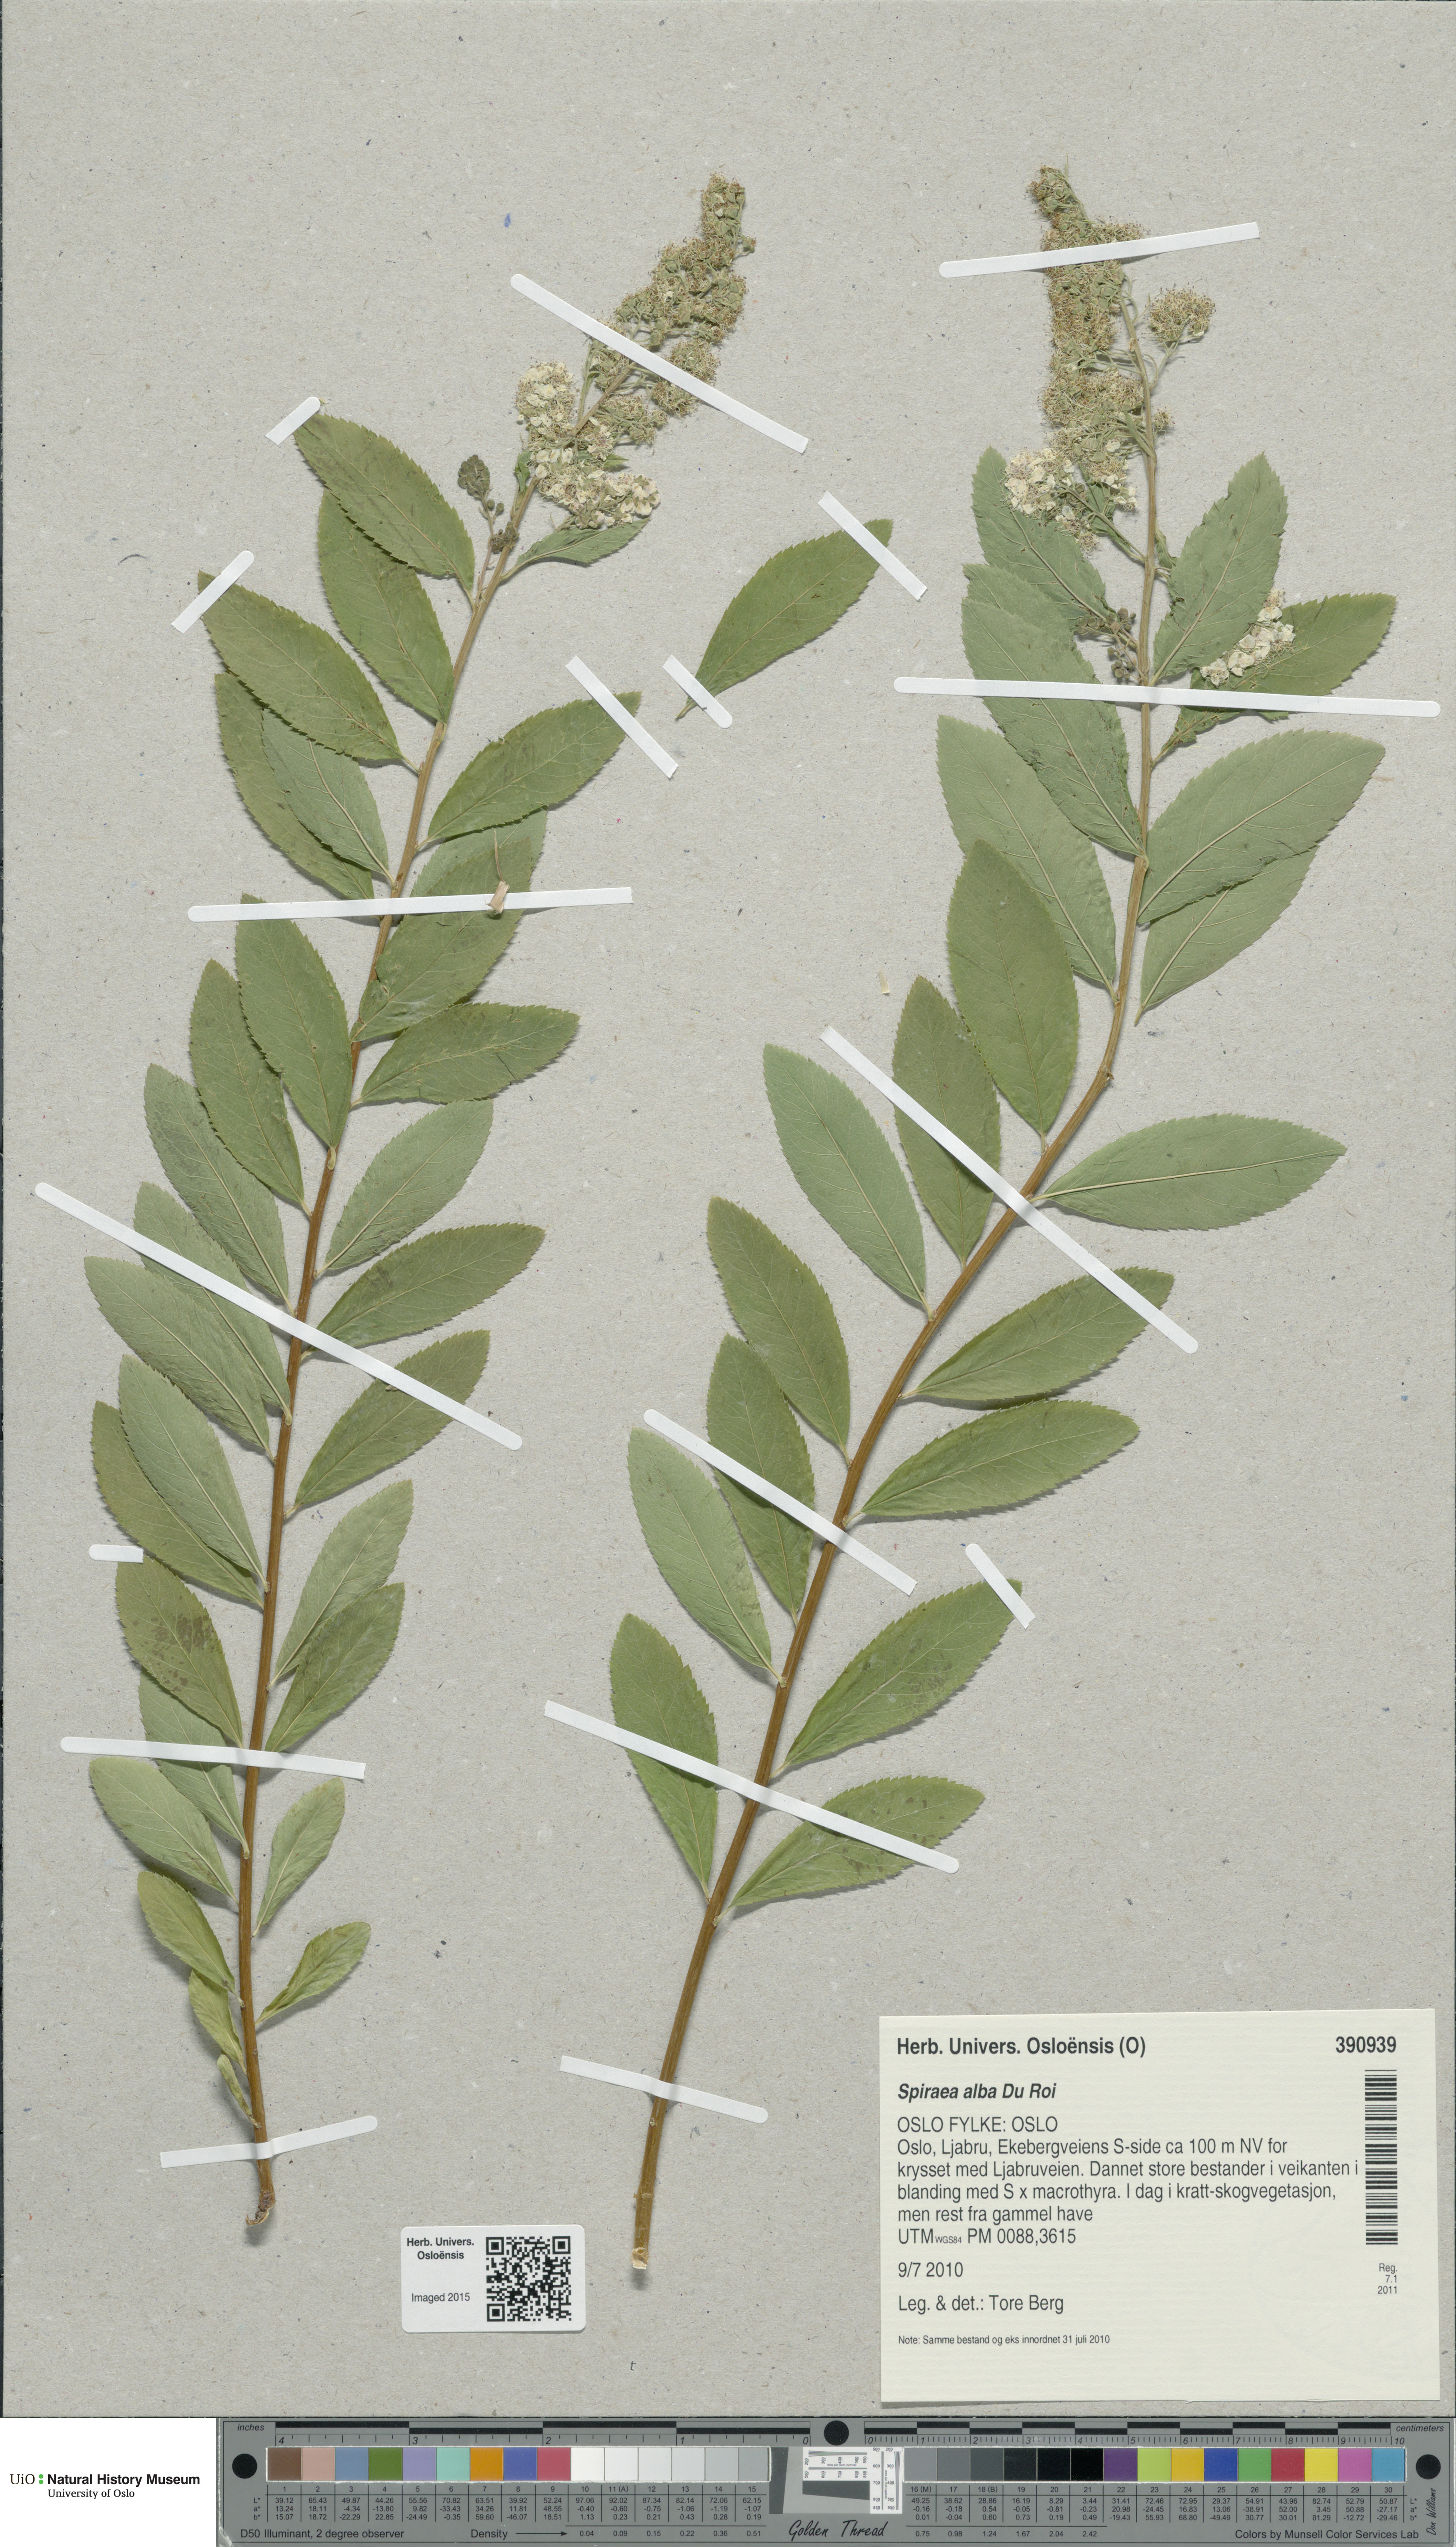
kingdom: Plantae
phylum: Tracheophyta
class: Magnoliopsida
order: Rosales
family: Rosaceae
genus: Spiraea
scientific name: Spiraea alba
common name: Pale bridewort
